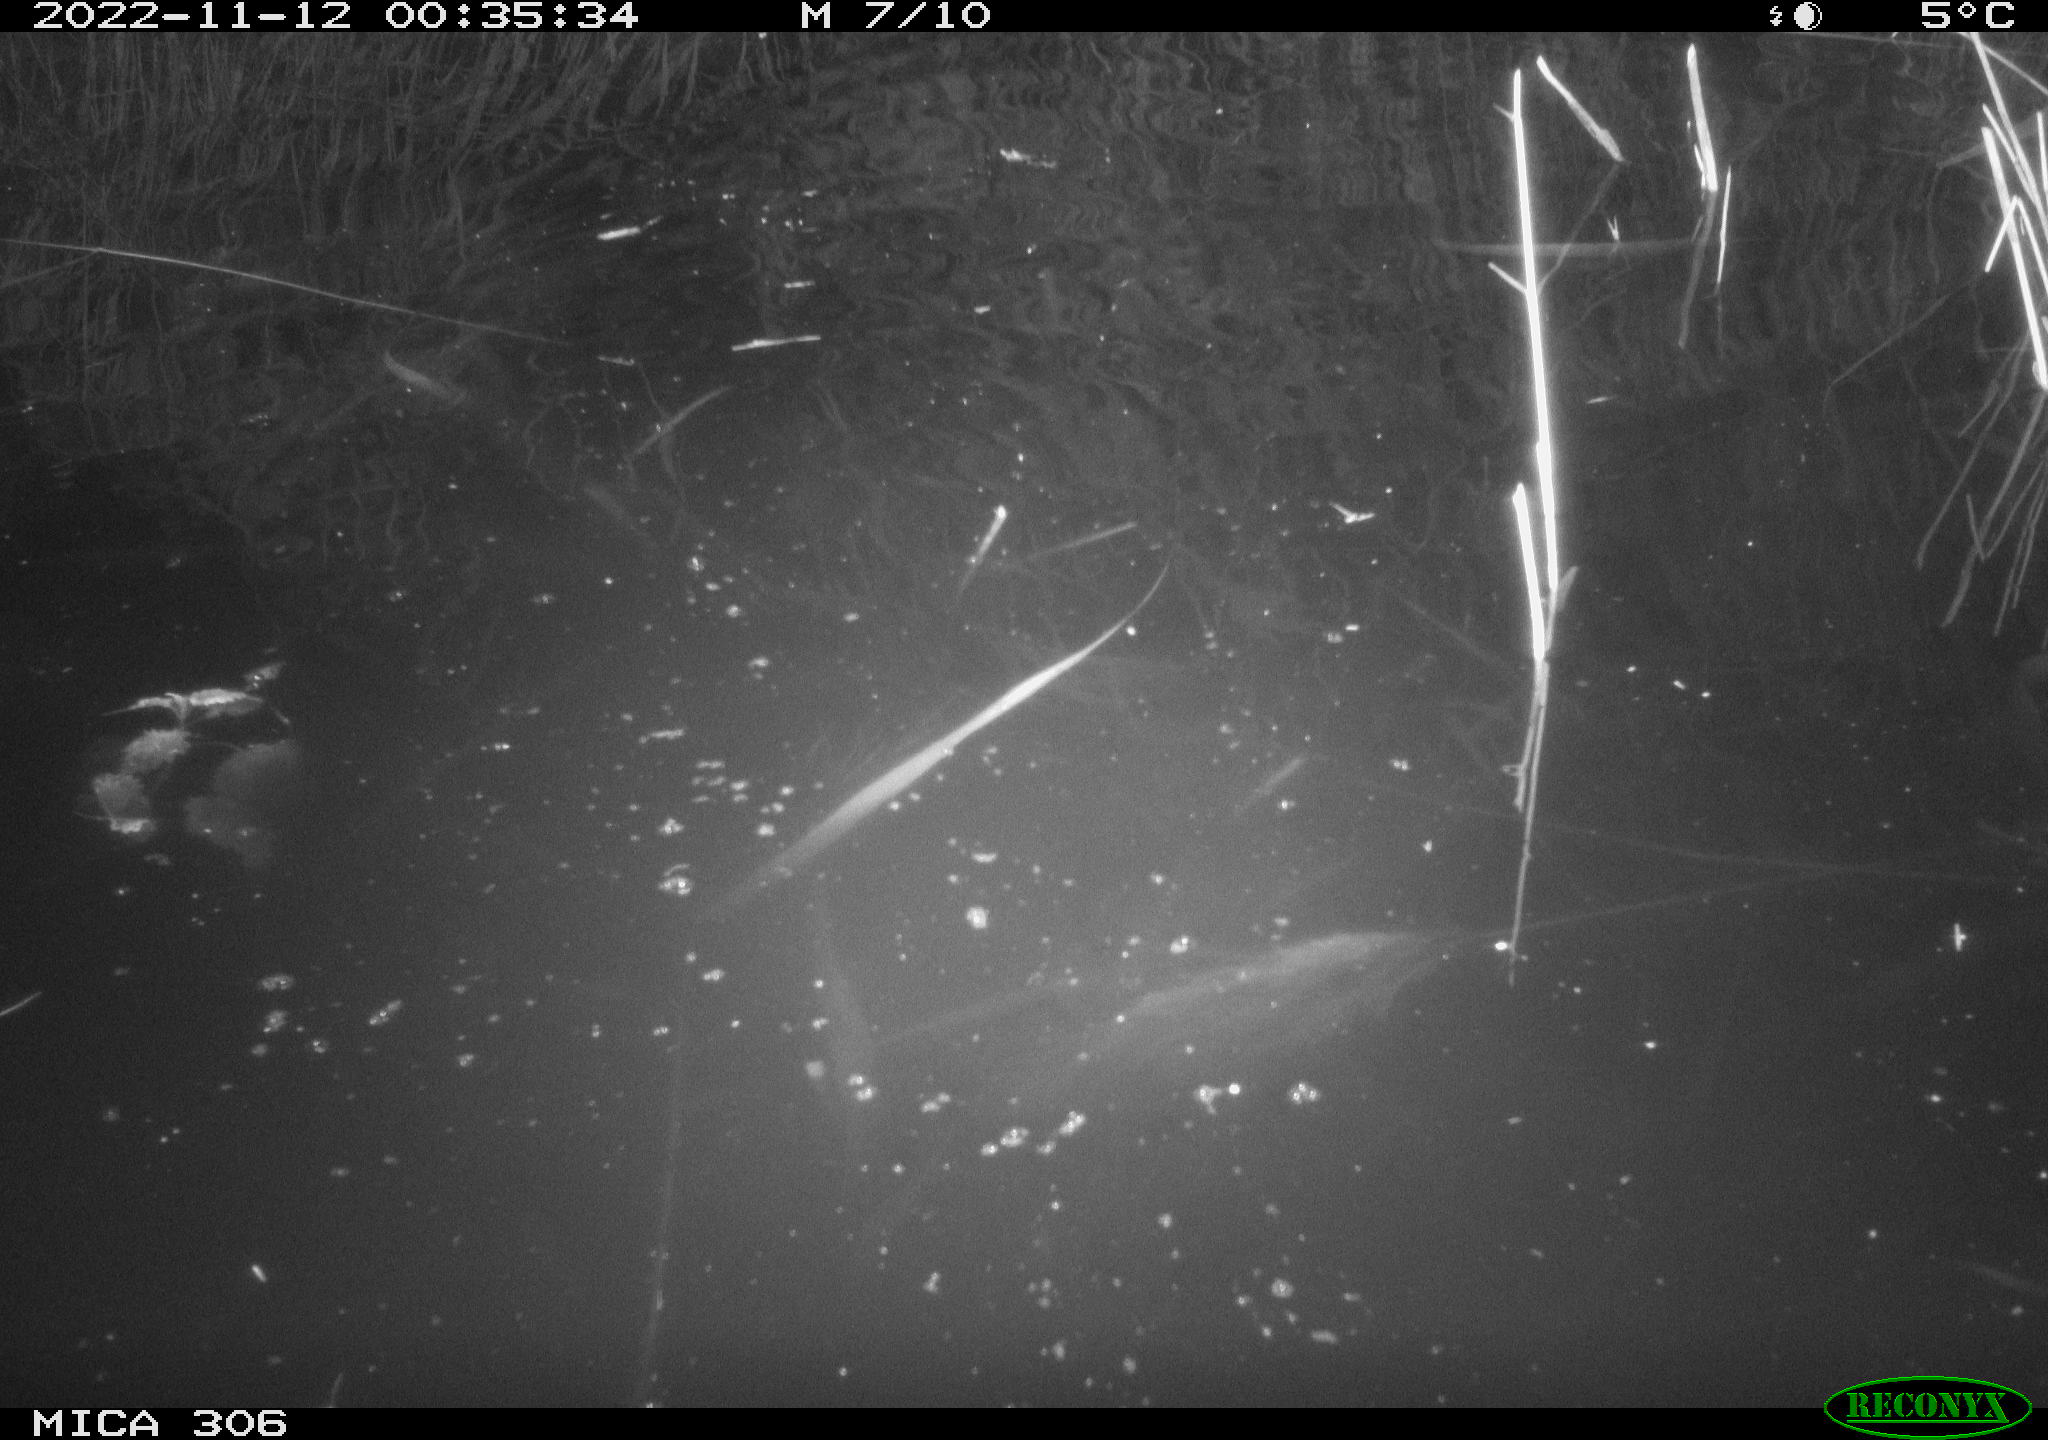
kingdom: Animalia
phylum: Chordata
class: Mammalia
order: Rodentia
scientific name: Rodentia
